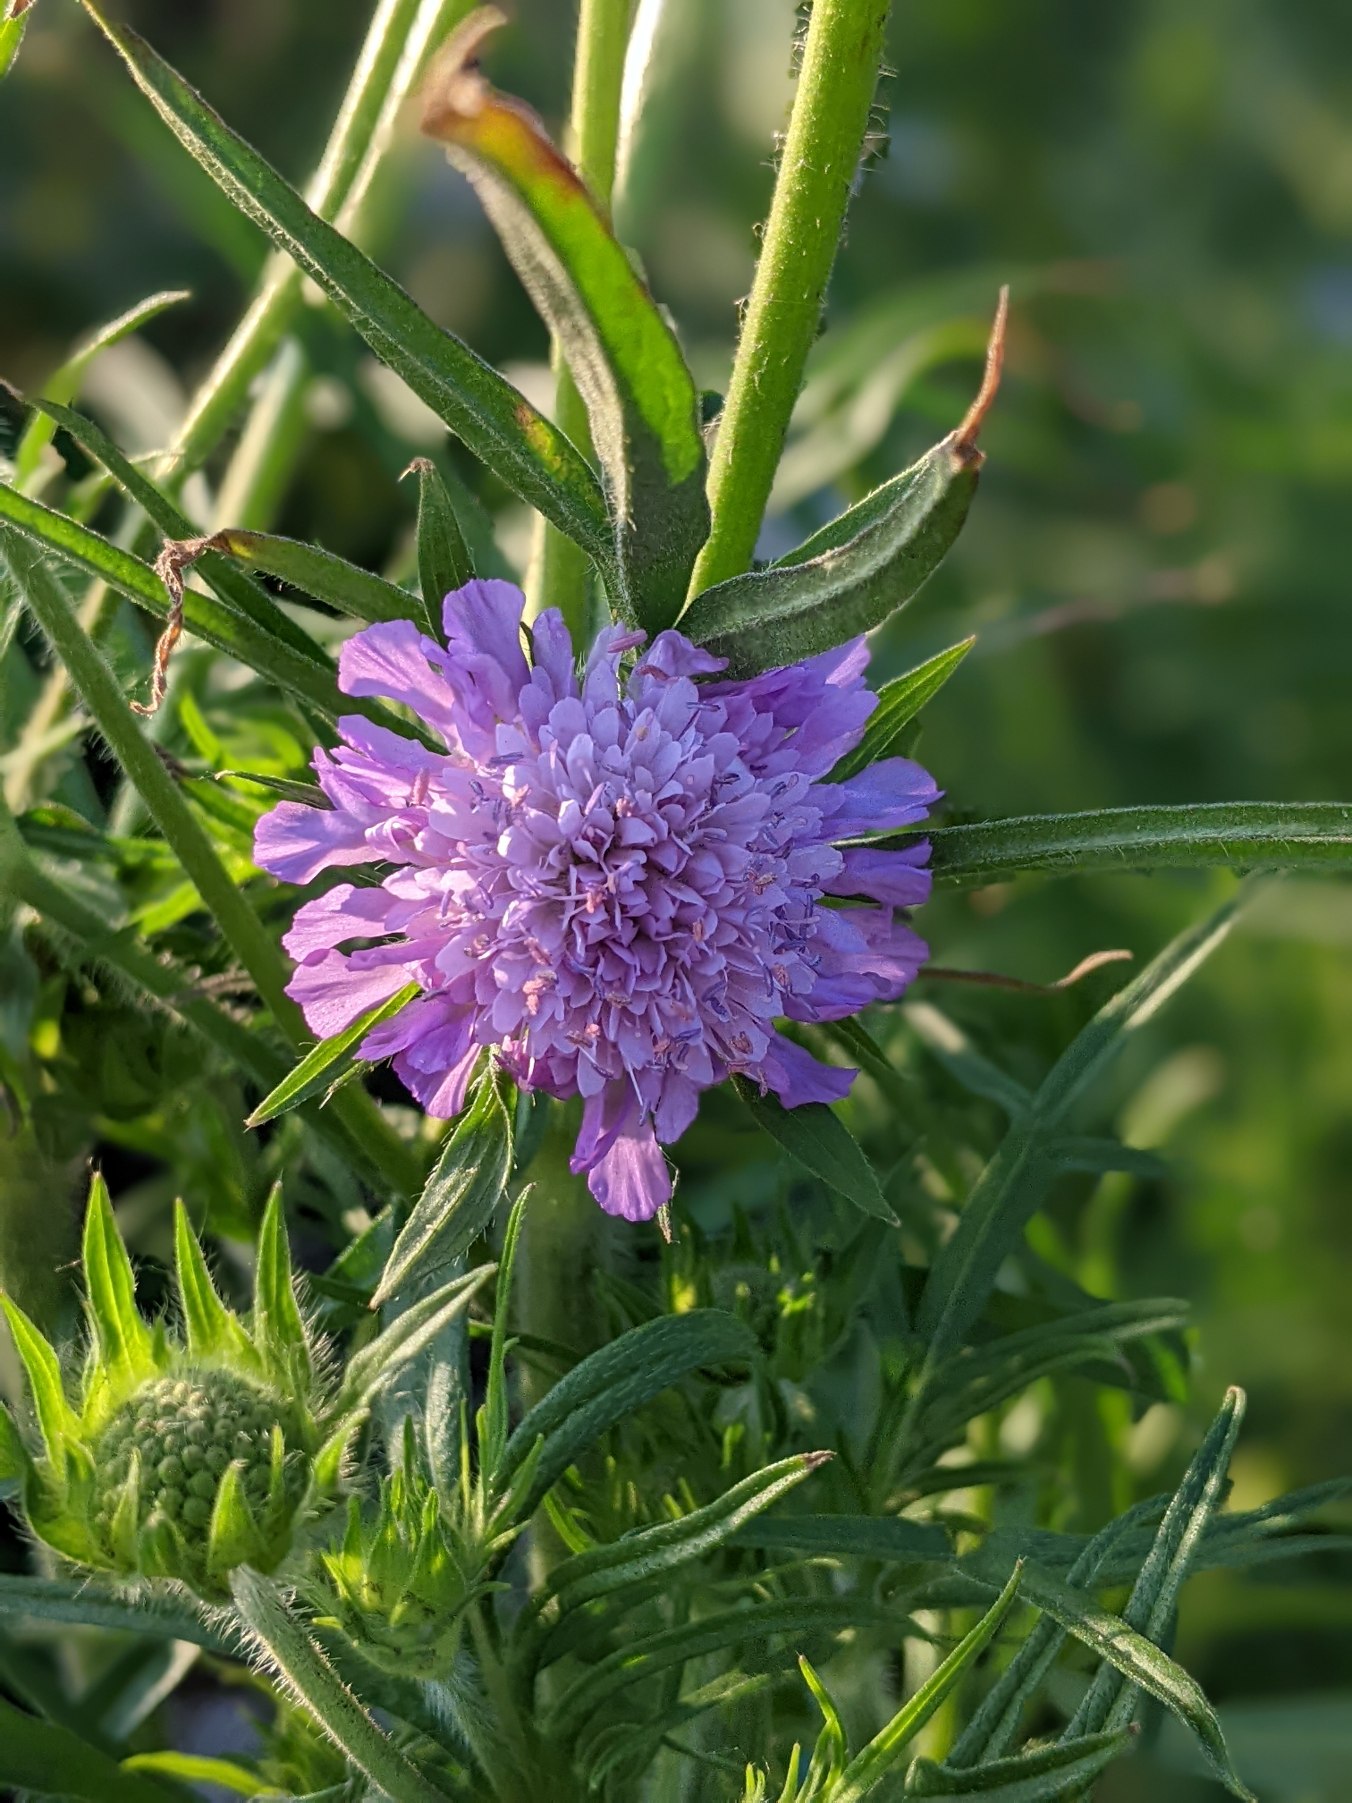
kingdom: Plantae
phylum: Tracheophyta
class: Magnoliopsida
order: Dipsacales
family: Caprifoliaceae
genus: Knautia
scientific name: Knautia arvensis
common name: Blåhat
